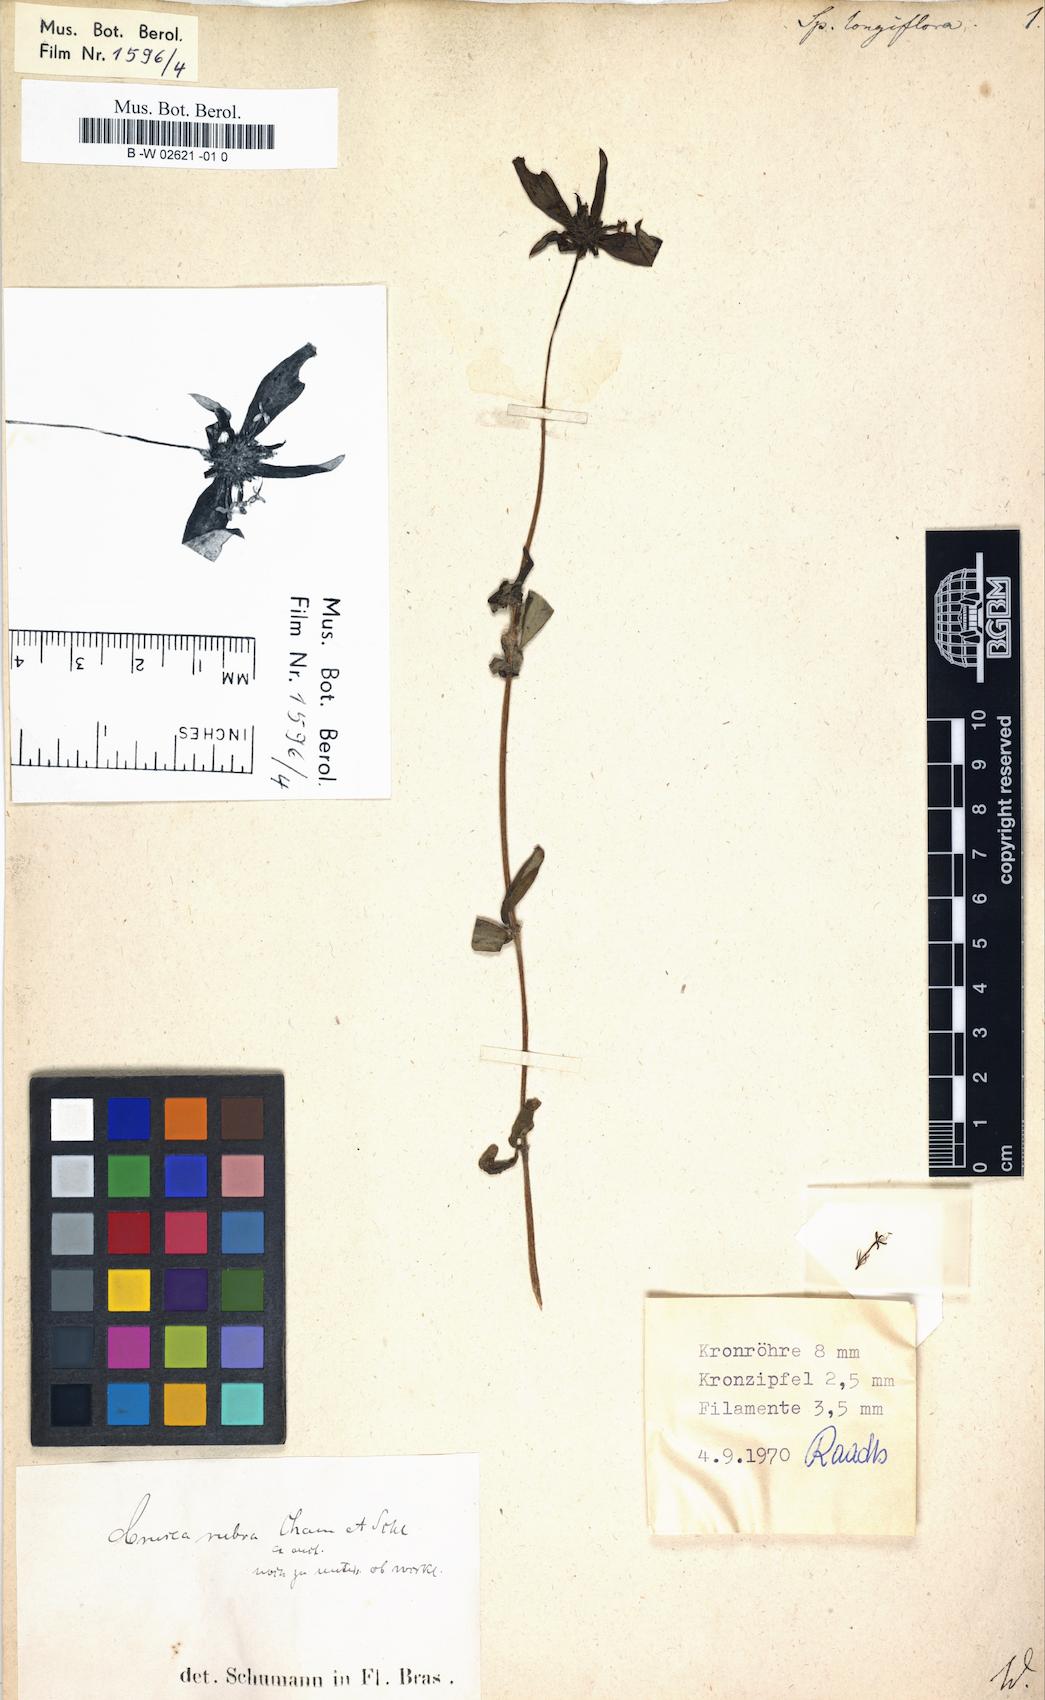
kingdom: Plantae
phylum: Tracheophyta
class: Magnoliopsida
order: Gentianales
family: Rubiaceae
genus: Crusea
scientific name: Crusea longiflora
